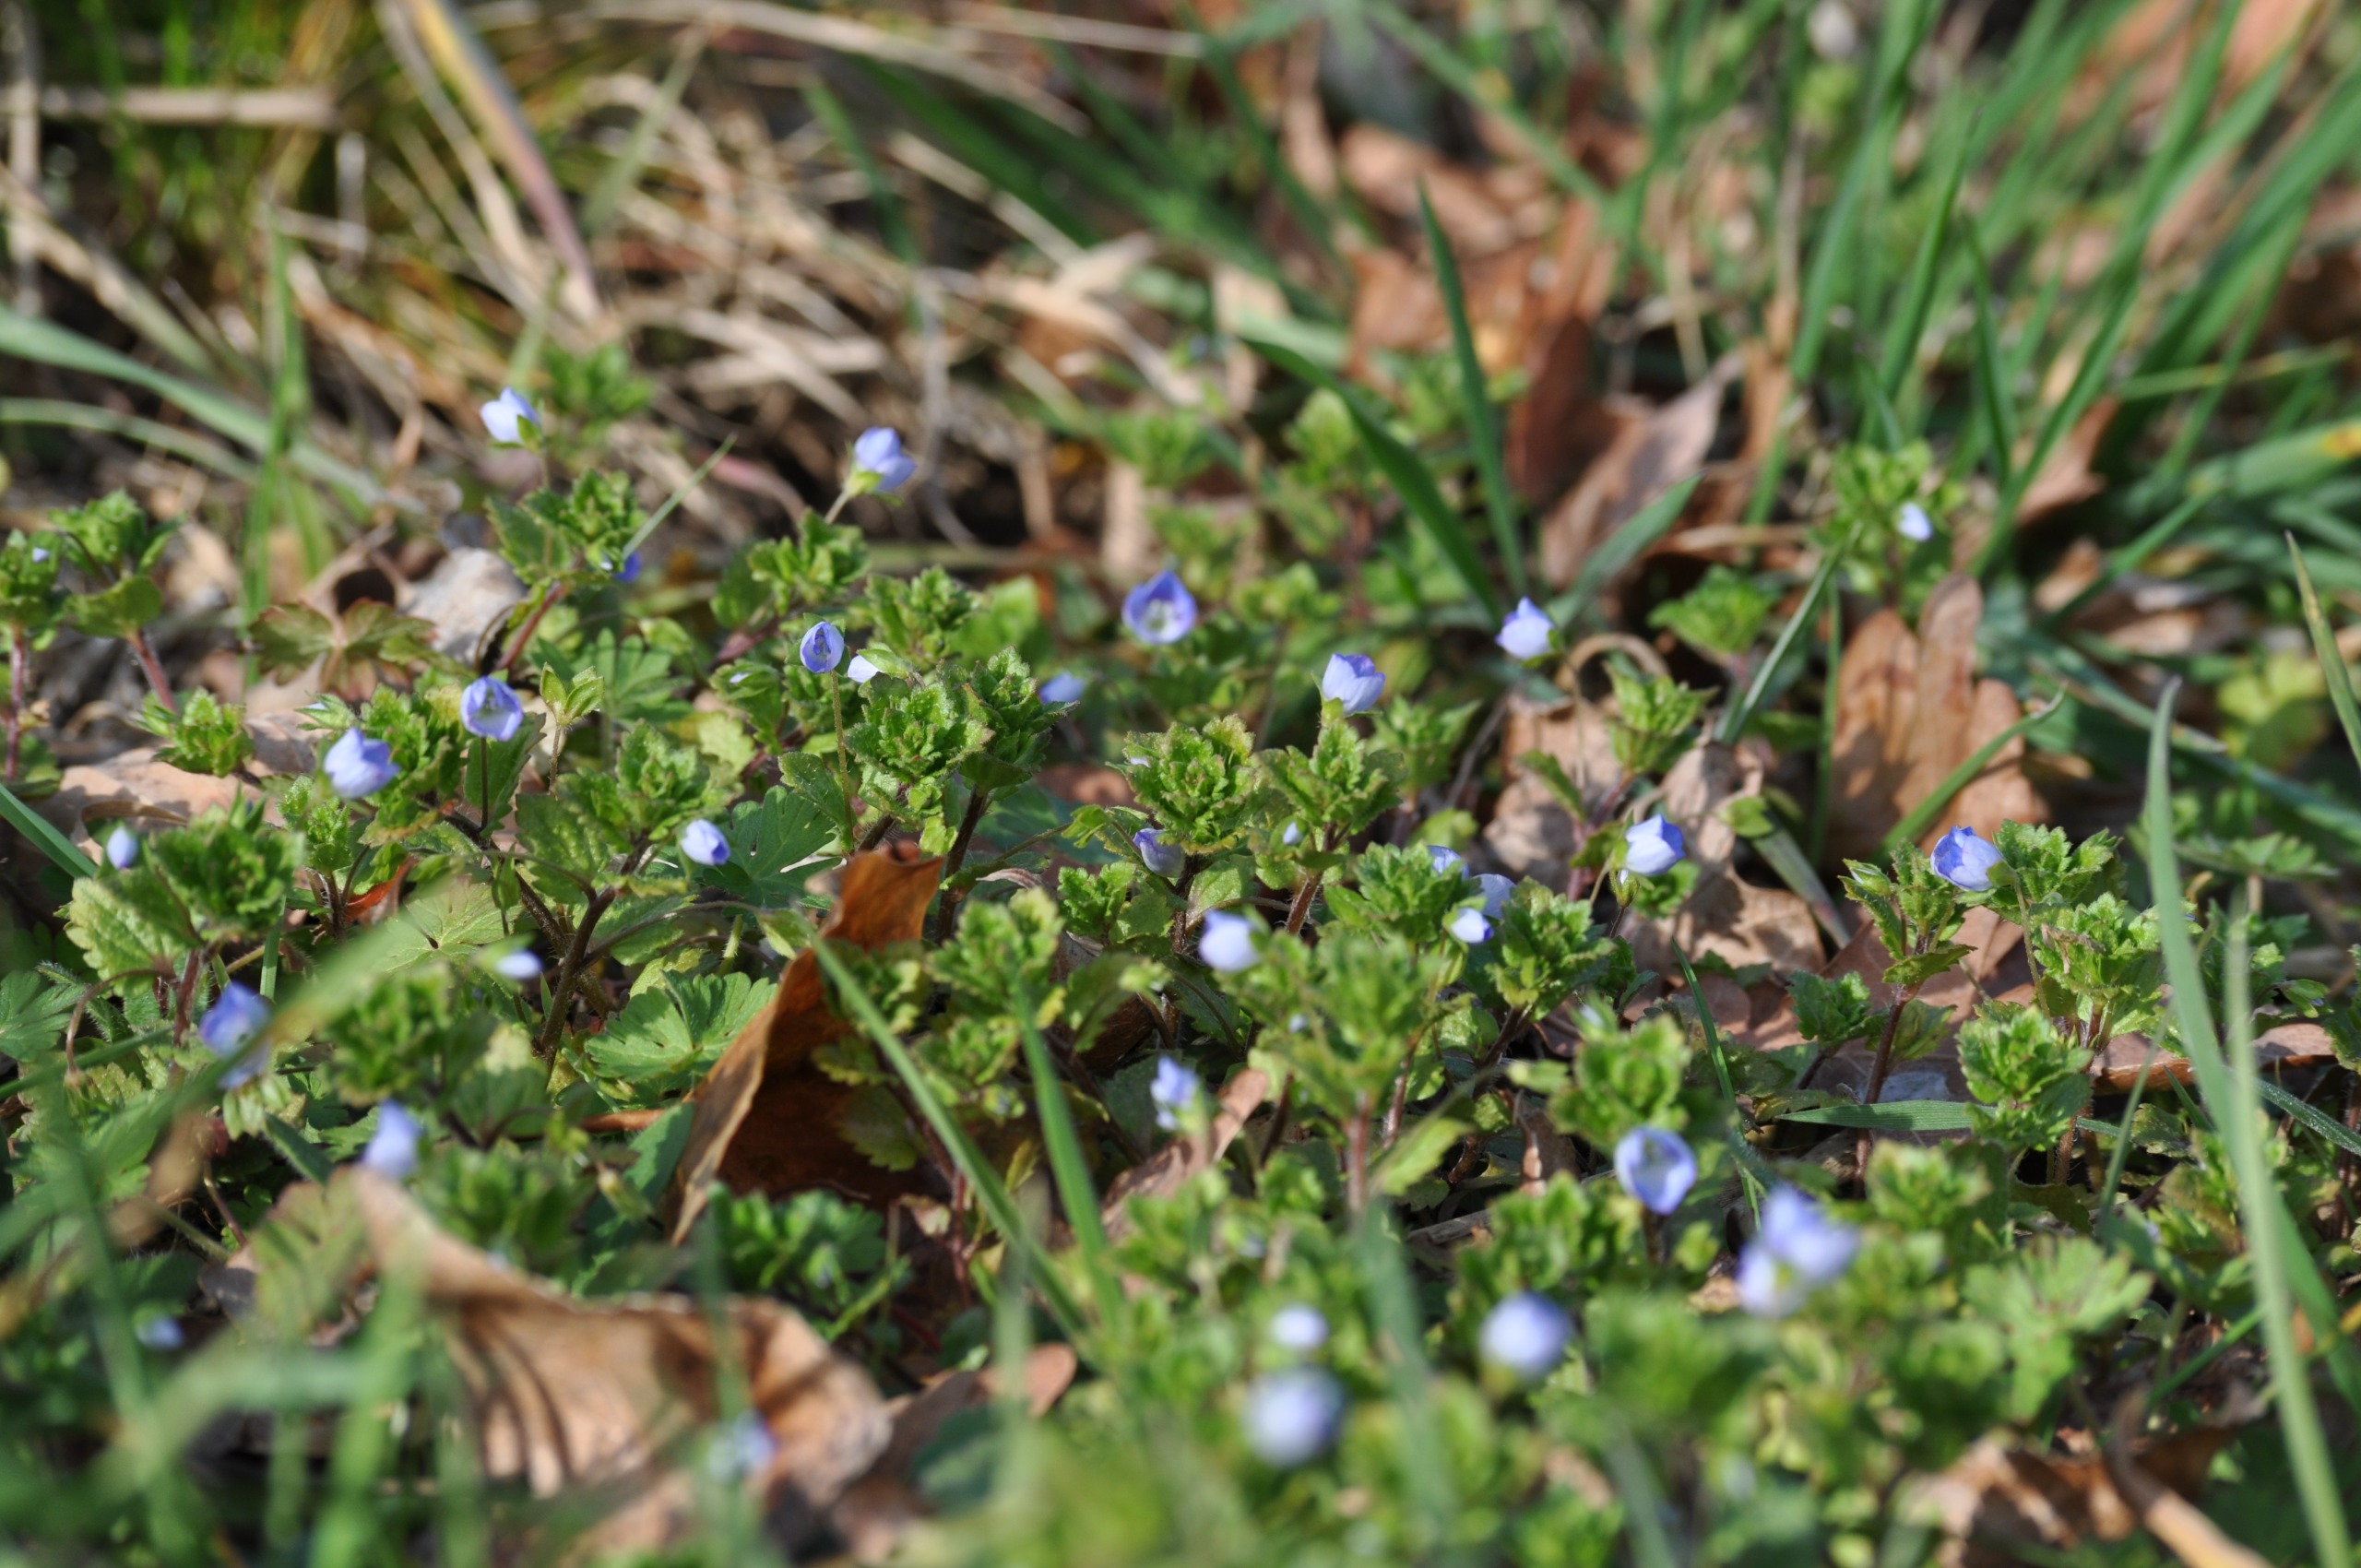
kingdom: Plantae
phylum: Tracheophyta
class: Magnoliopsida
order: Lamiales
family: Plantaginaceae
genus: Veronica
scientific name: Veronica persica
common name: Storkronet ærenpris
